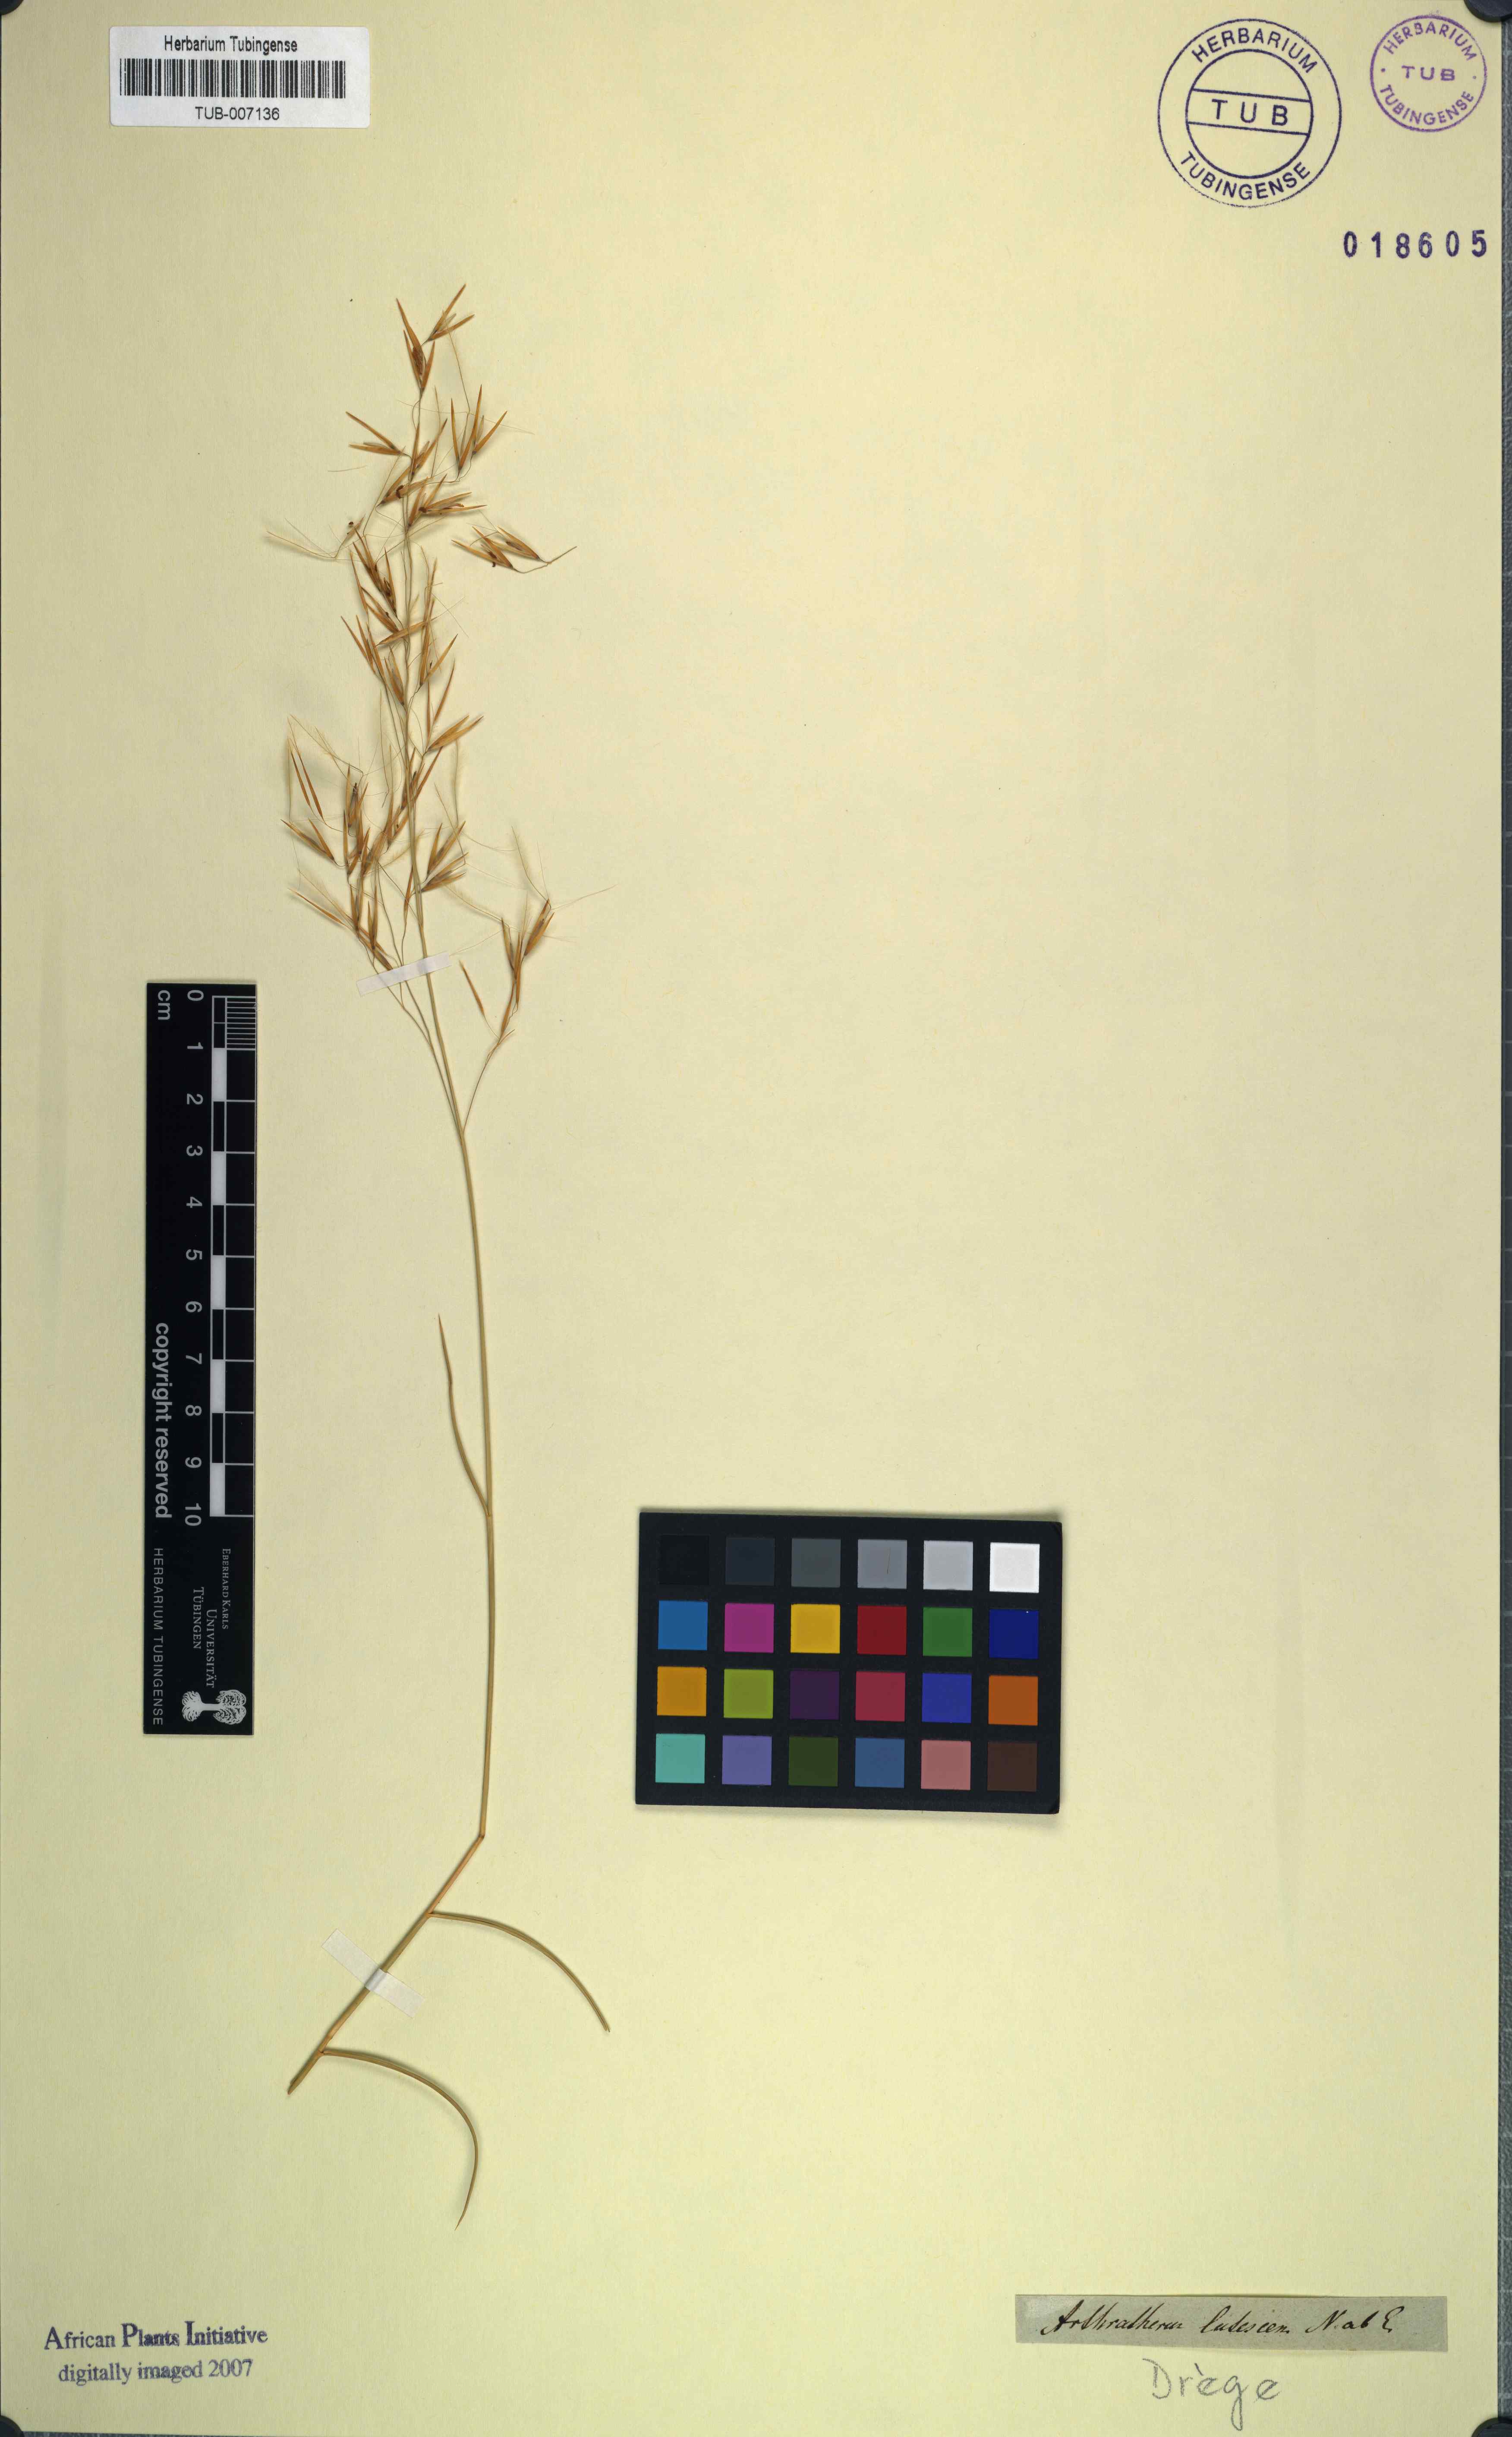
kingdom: Plantae
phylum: Tracheophyta
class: Liliopsida
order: Poales
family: Poaceae
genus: Aristida
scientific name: Aristida lutescens
